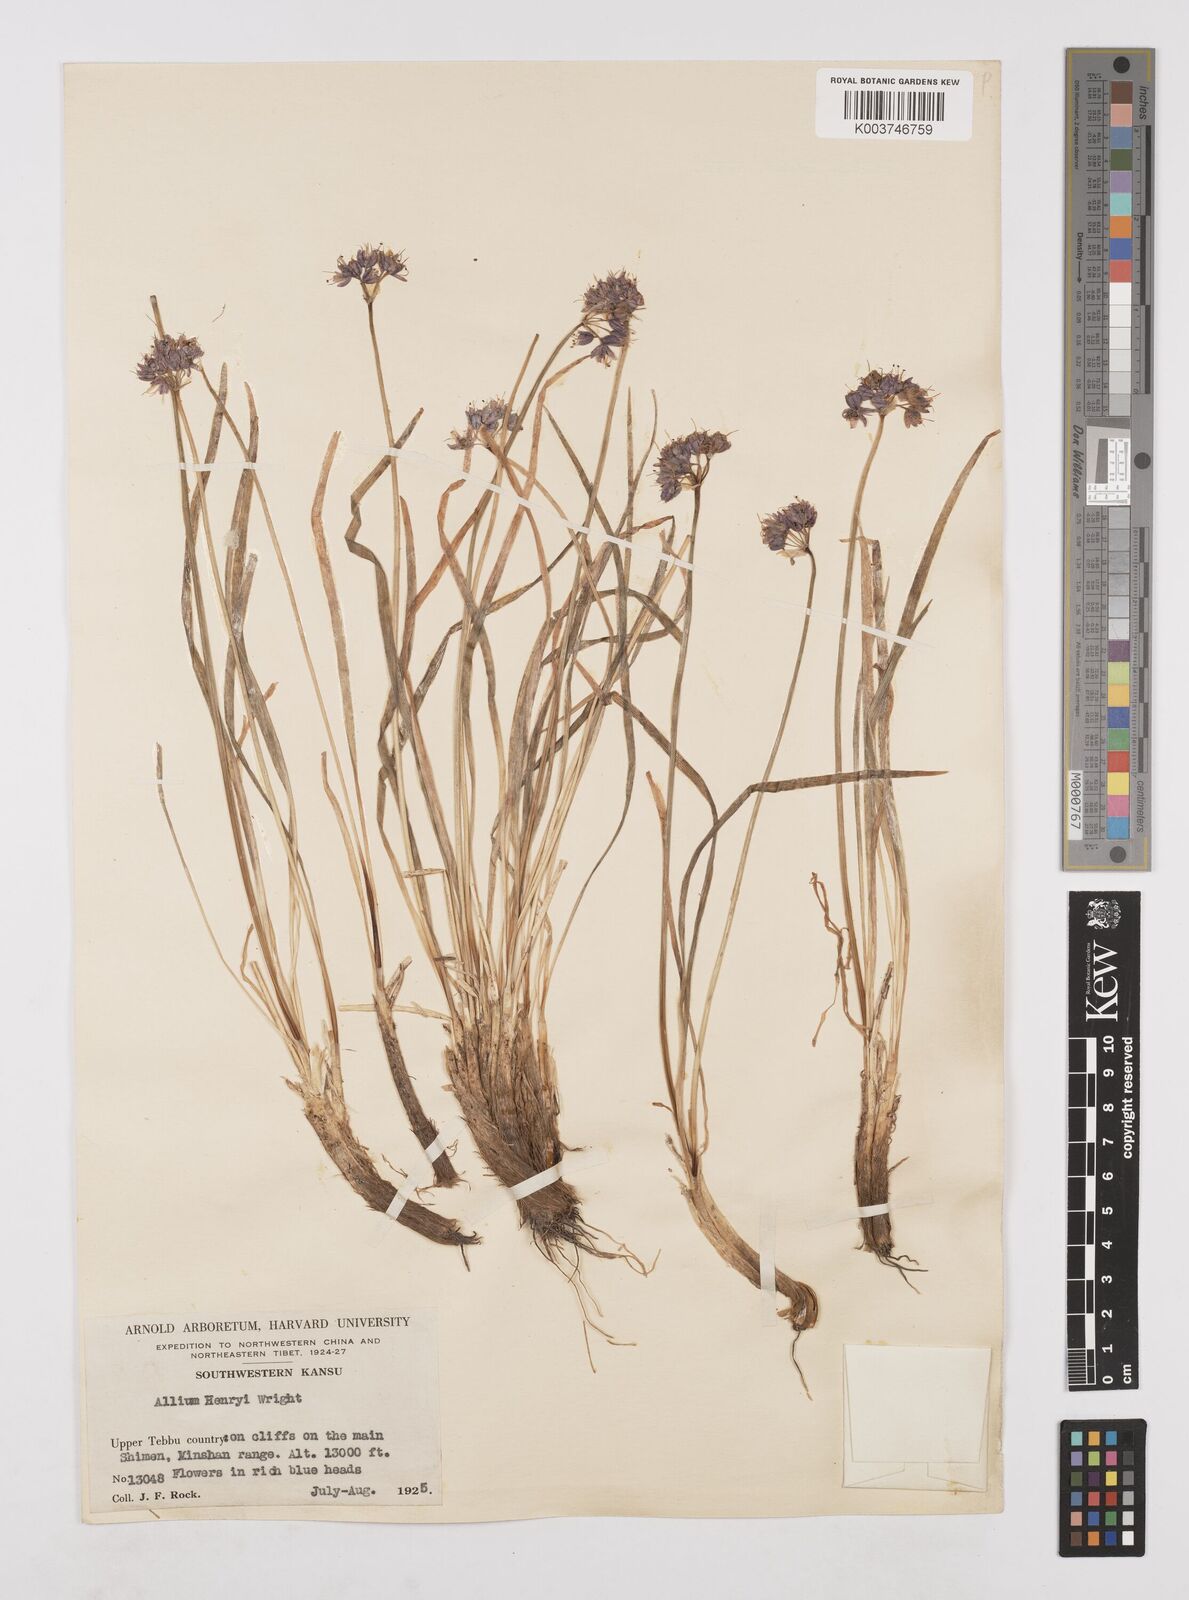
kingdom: Plantae
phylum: Tracheophyta
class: Liliopsida
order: Asparagales
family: Amaryllidaceae
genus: Allium
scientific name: Allium henryi
